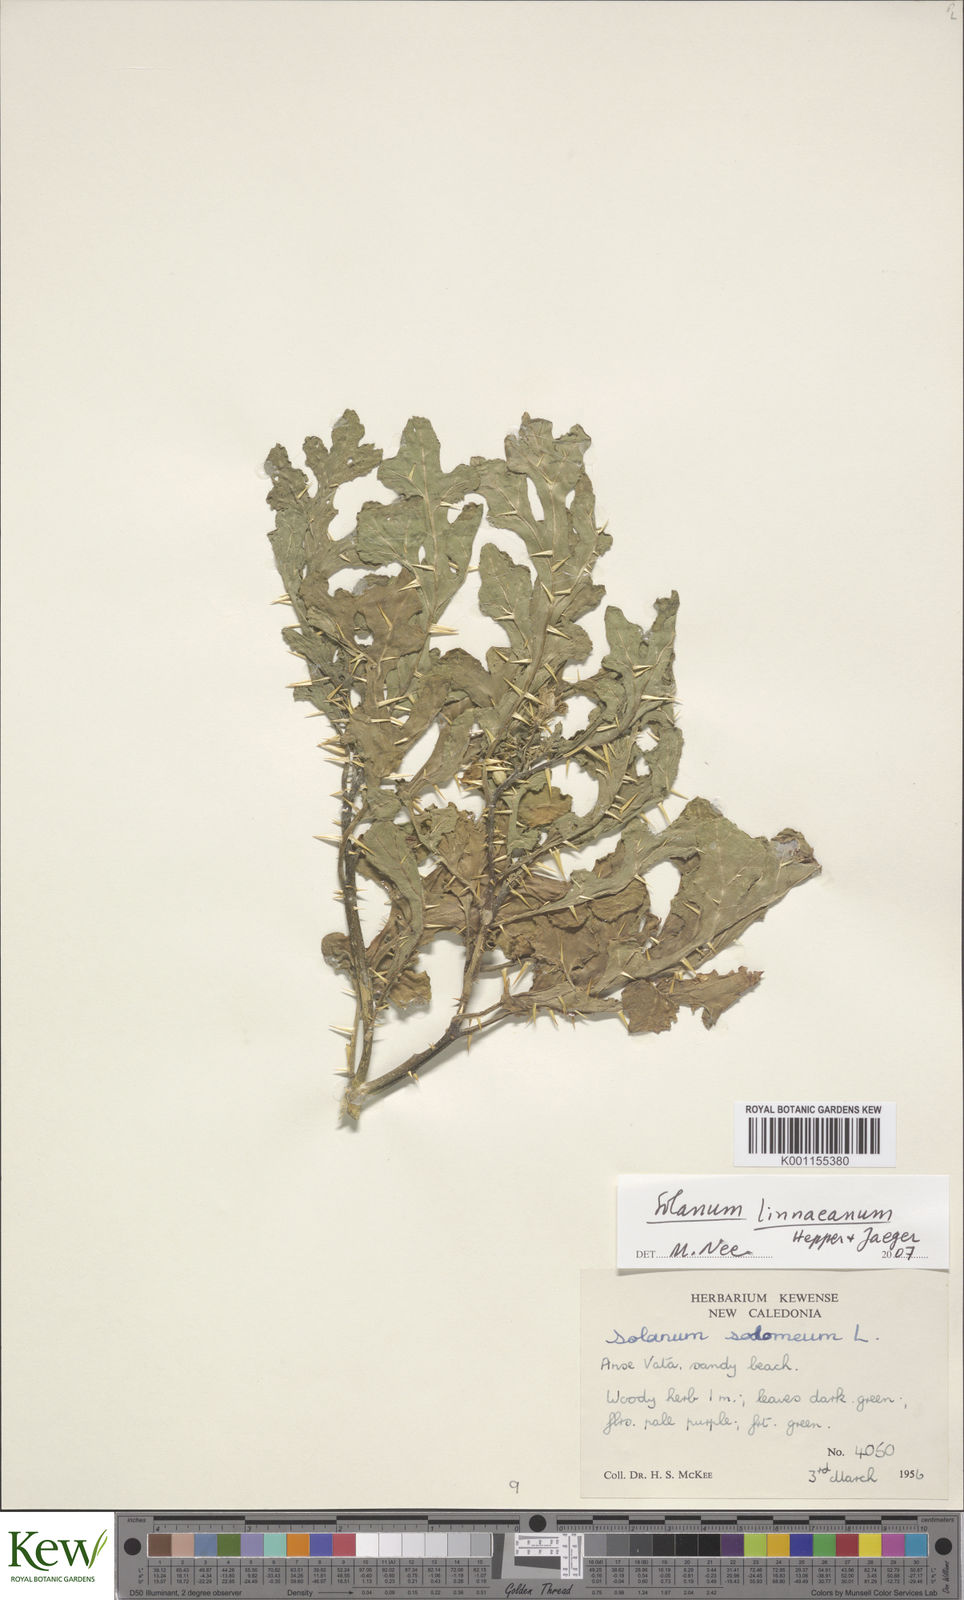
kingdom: Plantae
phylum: Tracheophyta
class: Magnoliopsida
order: Solanales
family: Solanaceae
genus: Solanum
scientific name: Solanum linnaeanum
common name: Nightshade
